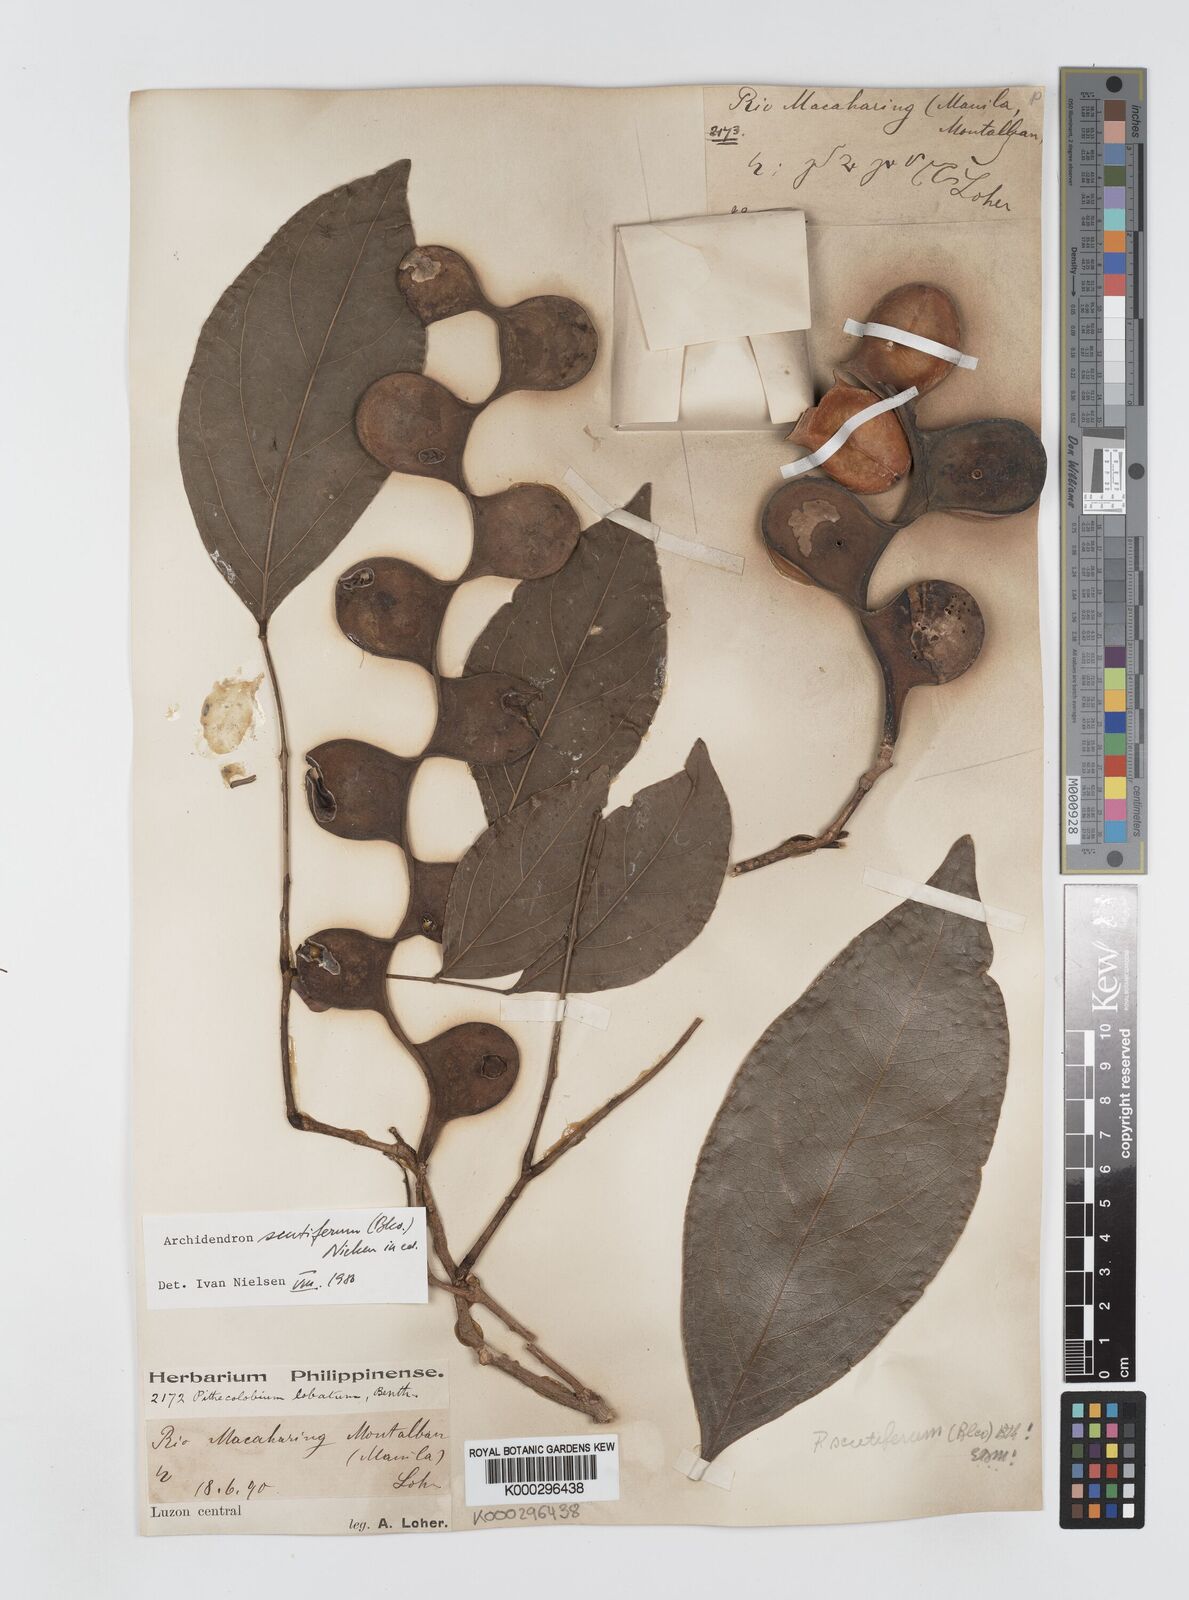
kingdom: Plantae
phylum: Tracheophyta
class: Magnoliopsida
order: Fabales
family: Fabaceae
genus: Archidendron
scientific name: Archidendron scutiferum
